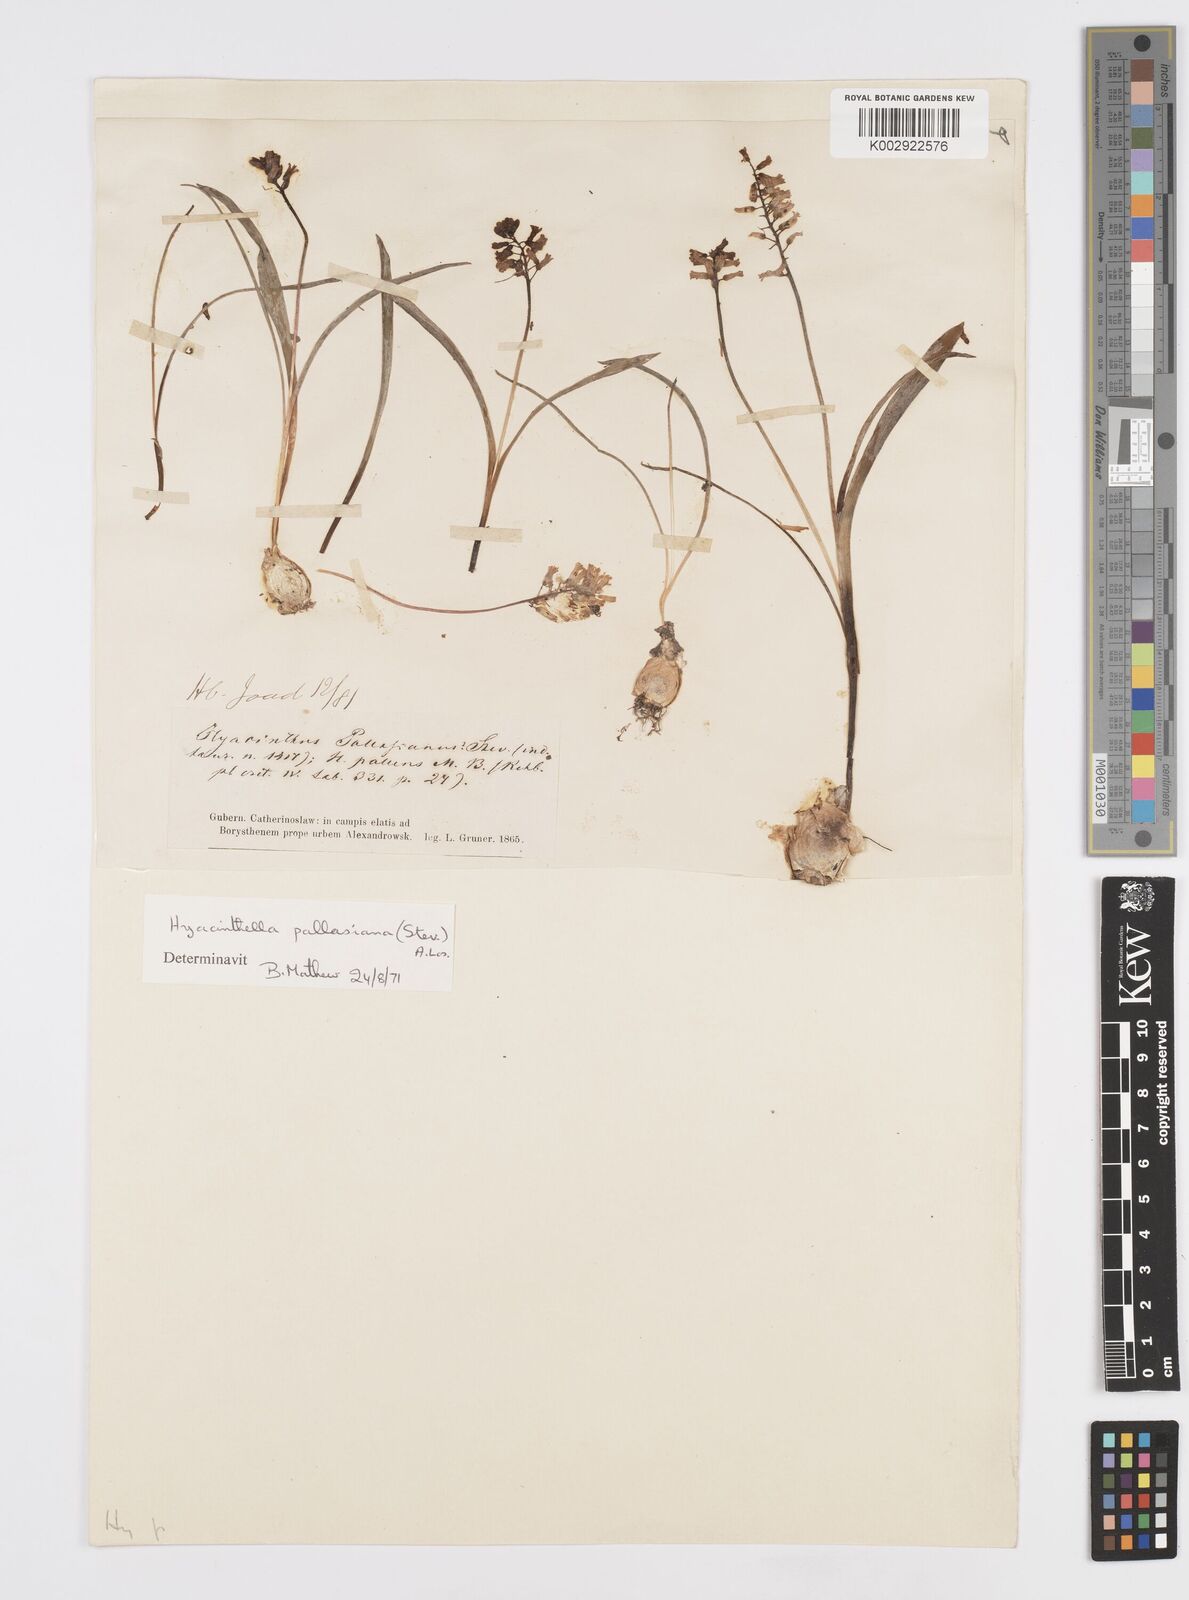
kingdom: Plantae
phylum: Tracheophyta
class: Liliopsida
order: Asparagales
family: Asparagaceae
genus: Hyacinthella
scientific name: Hyacinthella pallasiana
